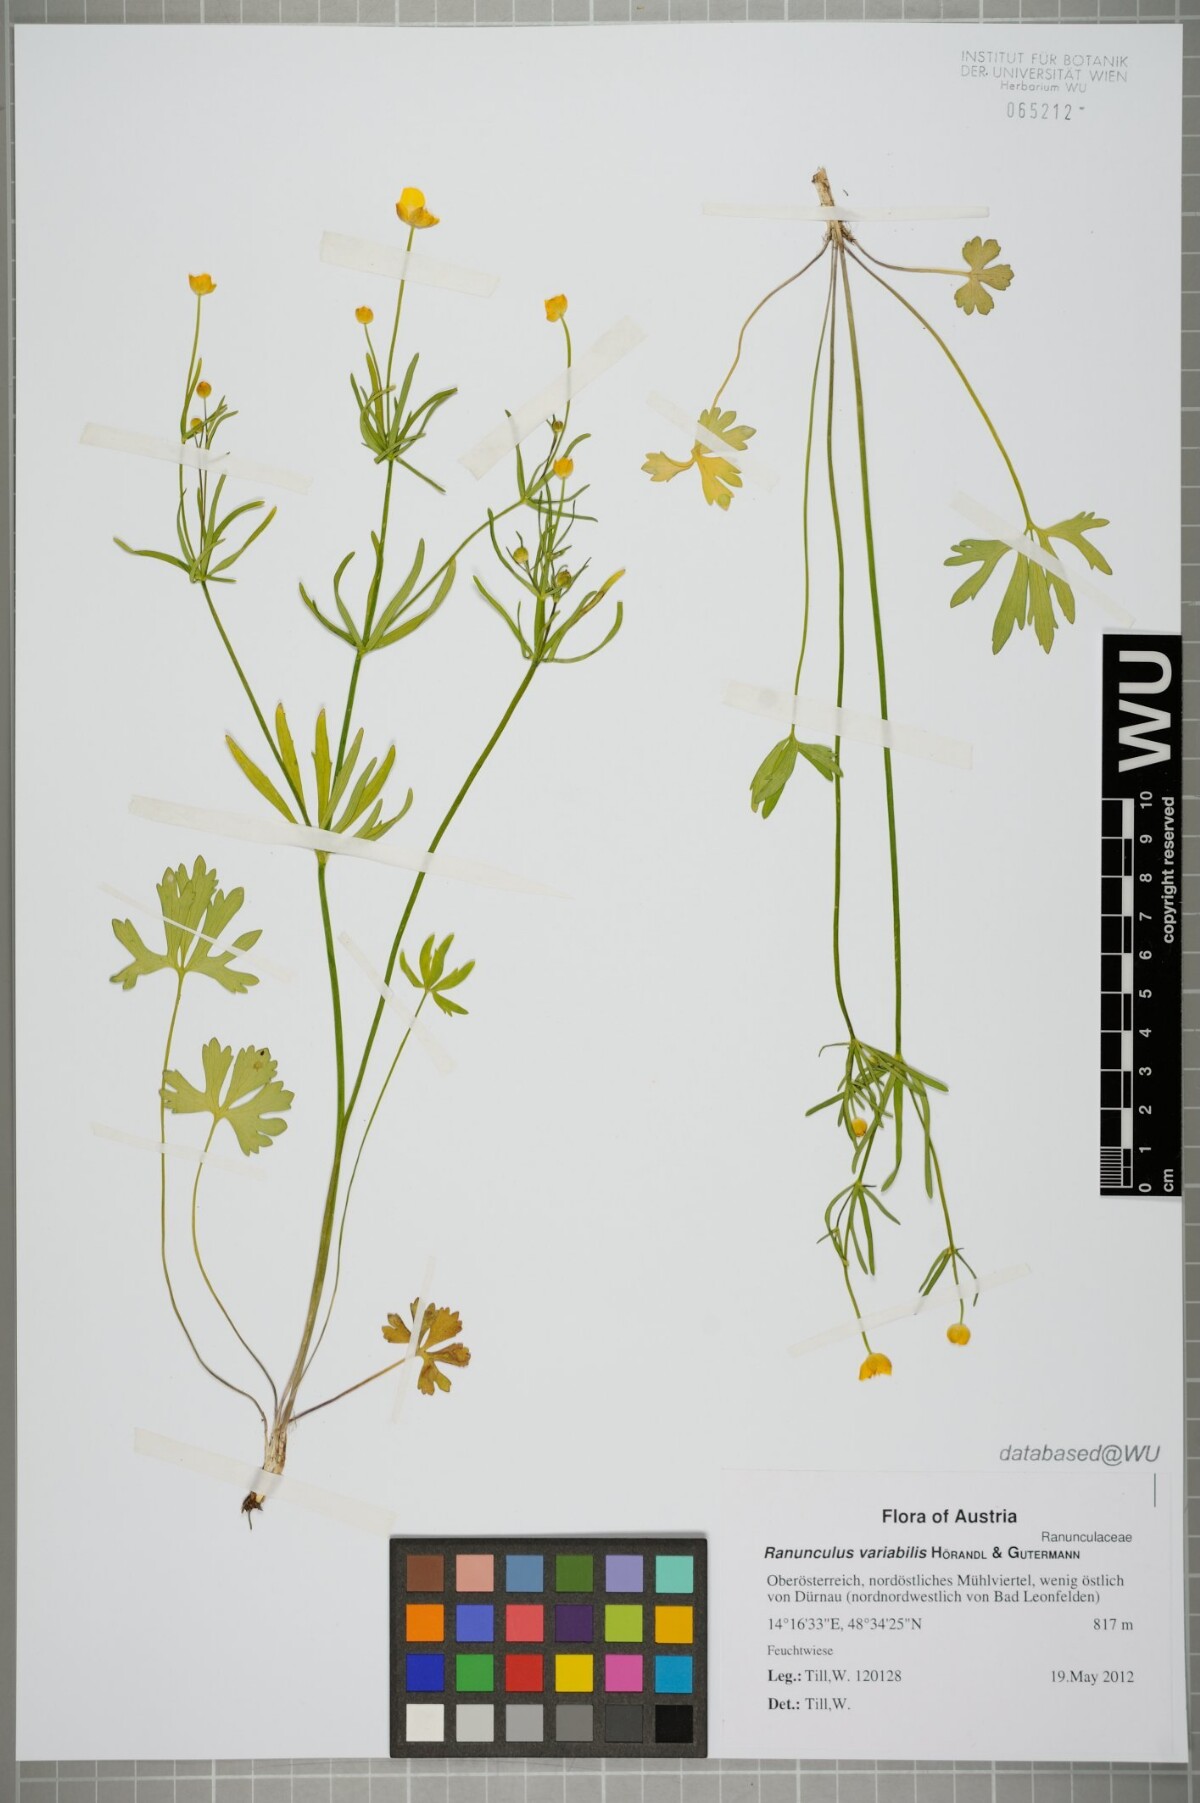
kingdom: Plantae
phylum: Tracheophyta
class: Magnoliopsida
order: Ranunculales
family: Ranunculaceae
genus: Ranunculus
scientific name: Ranunculus variabilis
